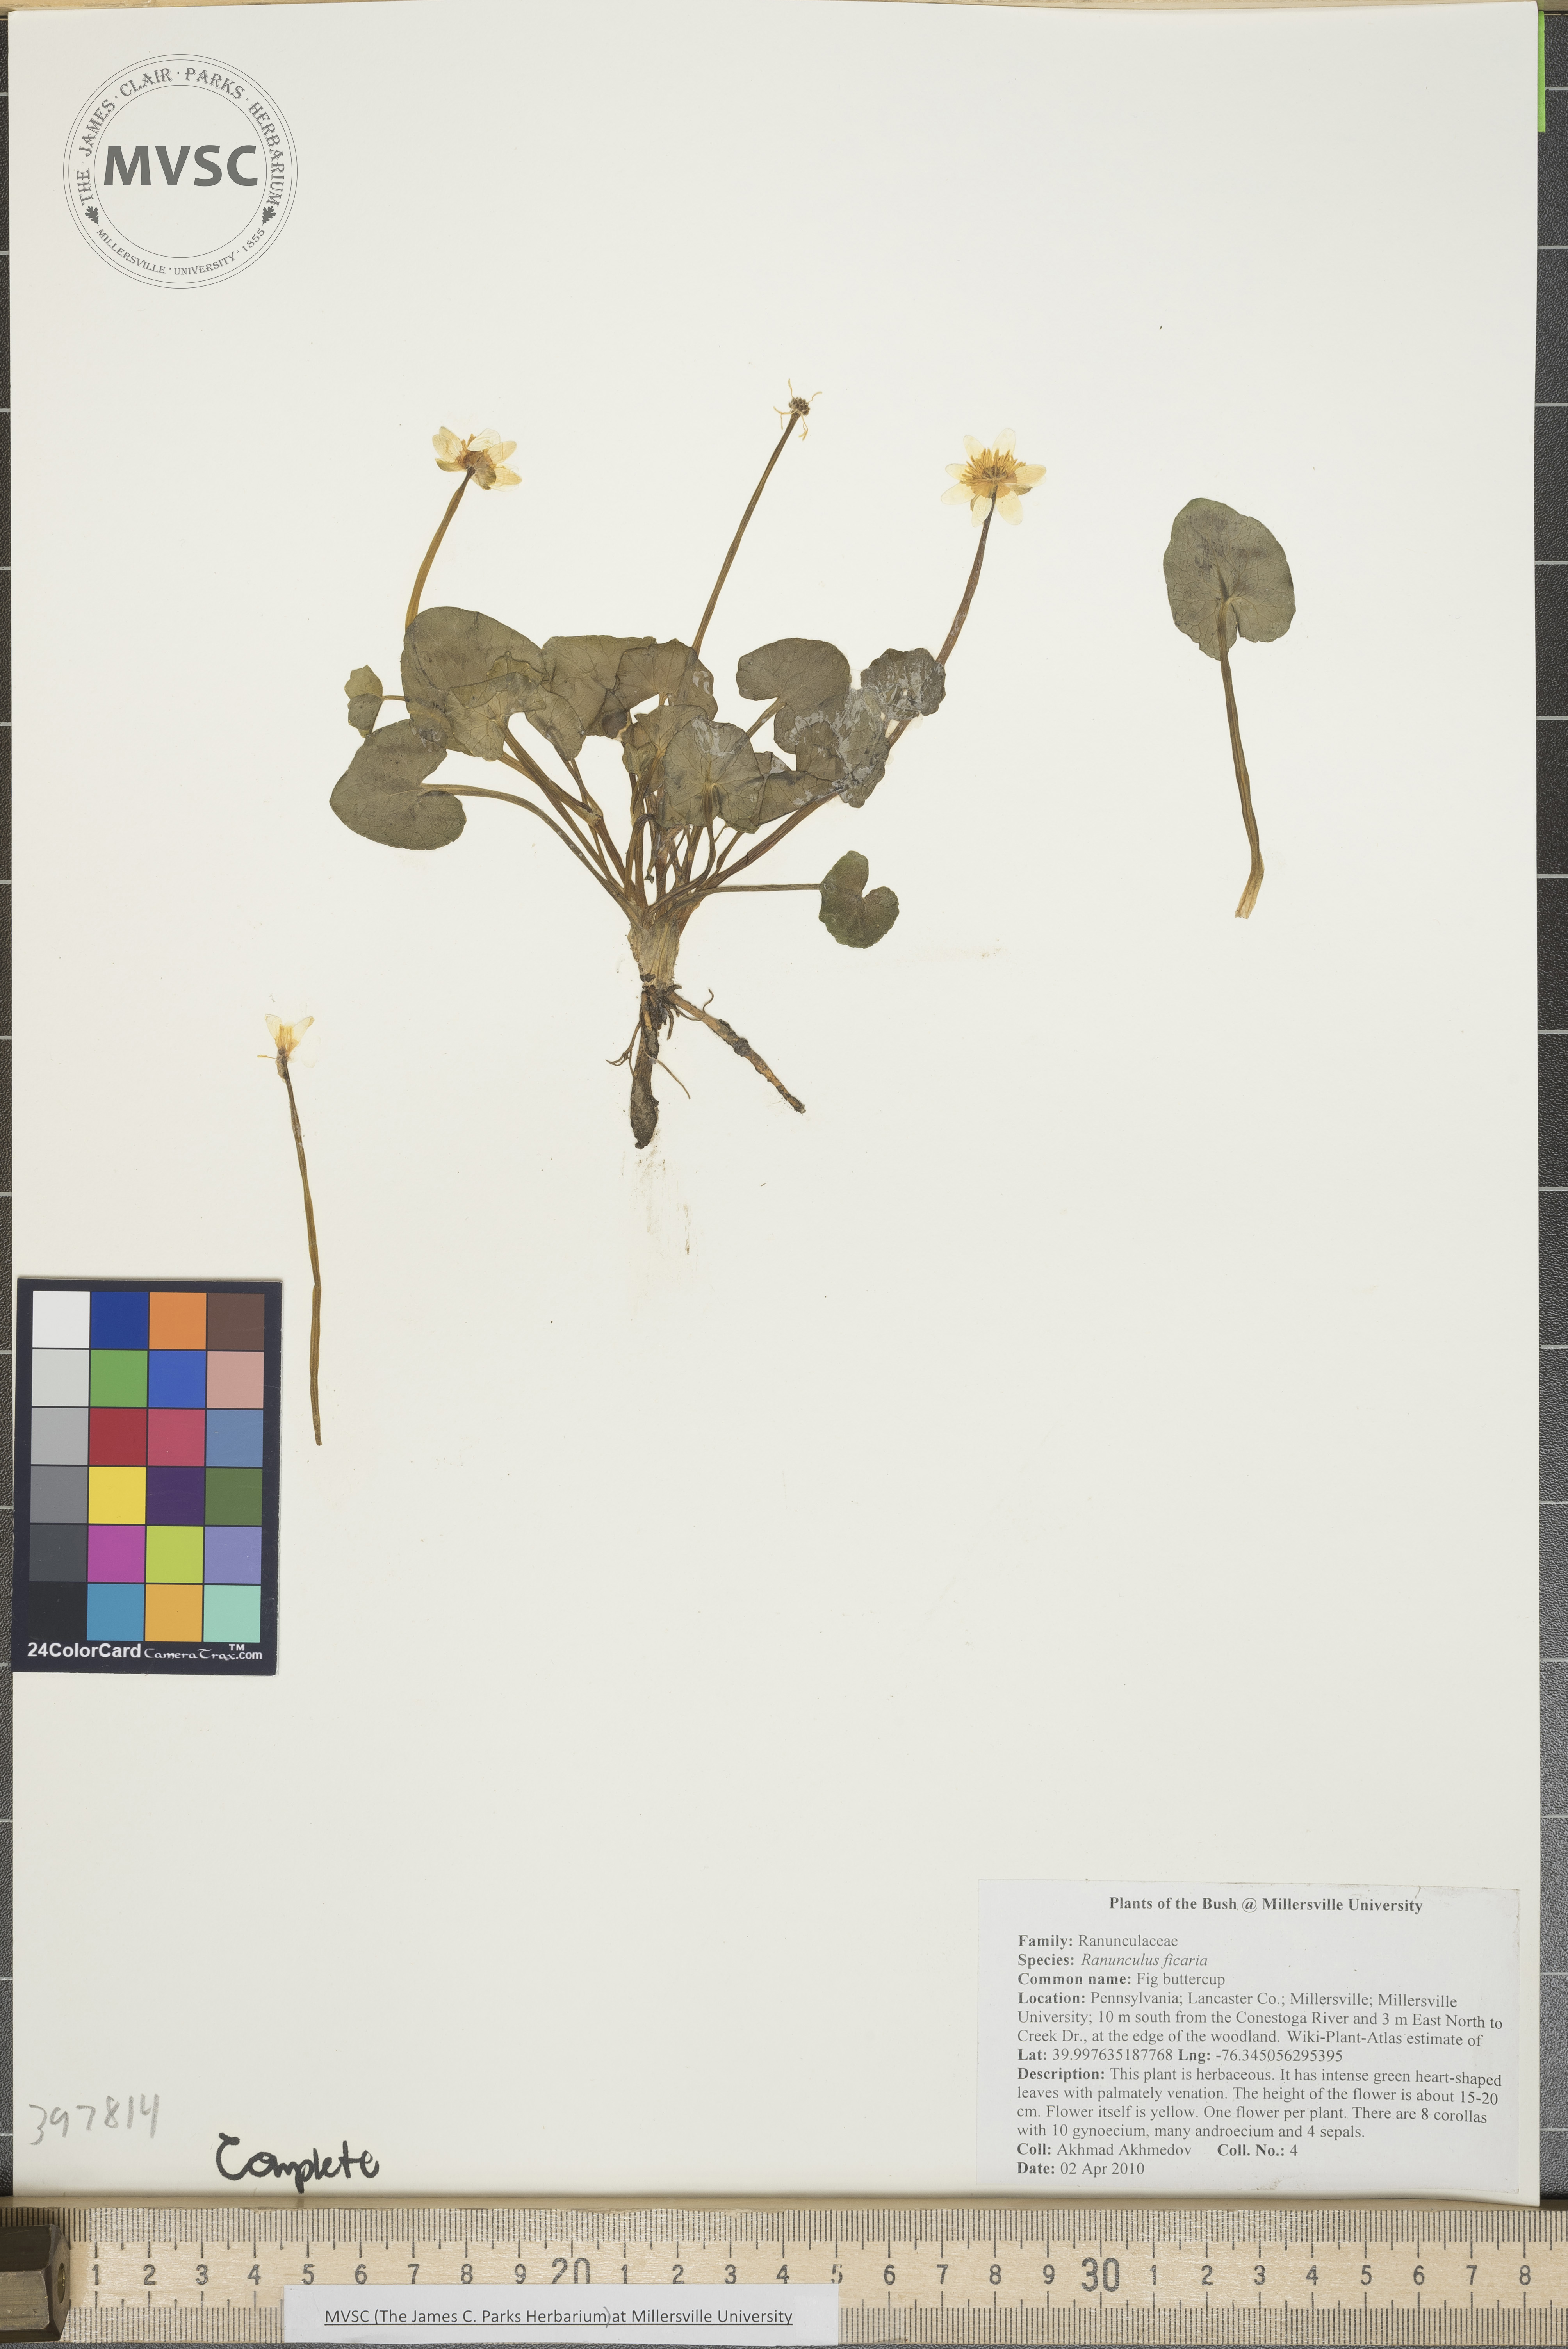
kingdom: Plantae
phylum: Tracheophyta
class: Magnoliopsida
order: Ranunculales
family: Ranunculaceae
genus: Ranunculus
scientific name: Ranunculus ficaria
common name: Lesser celandine
